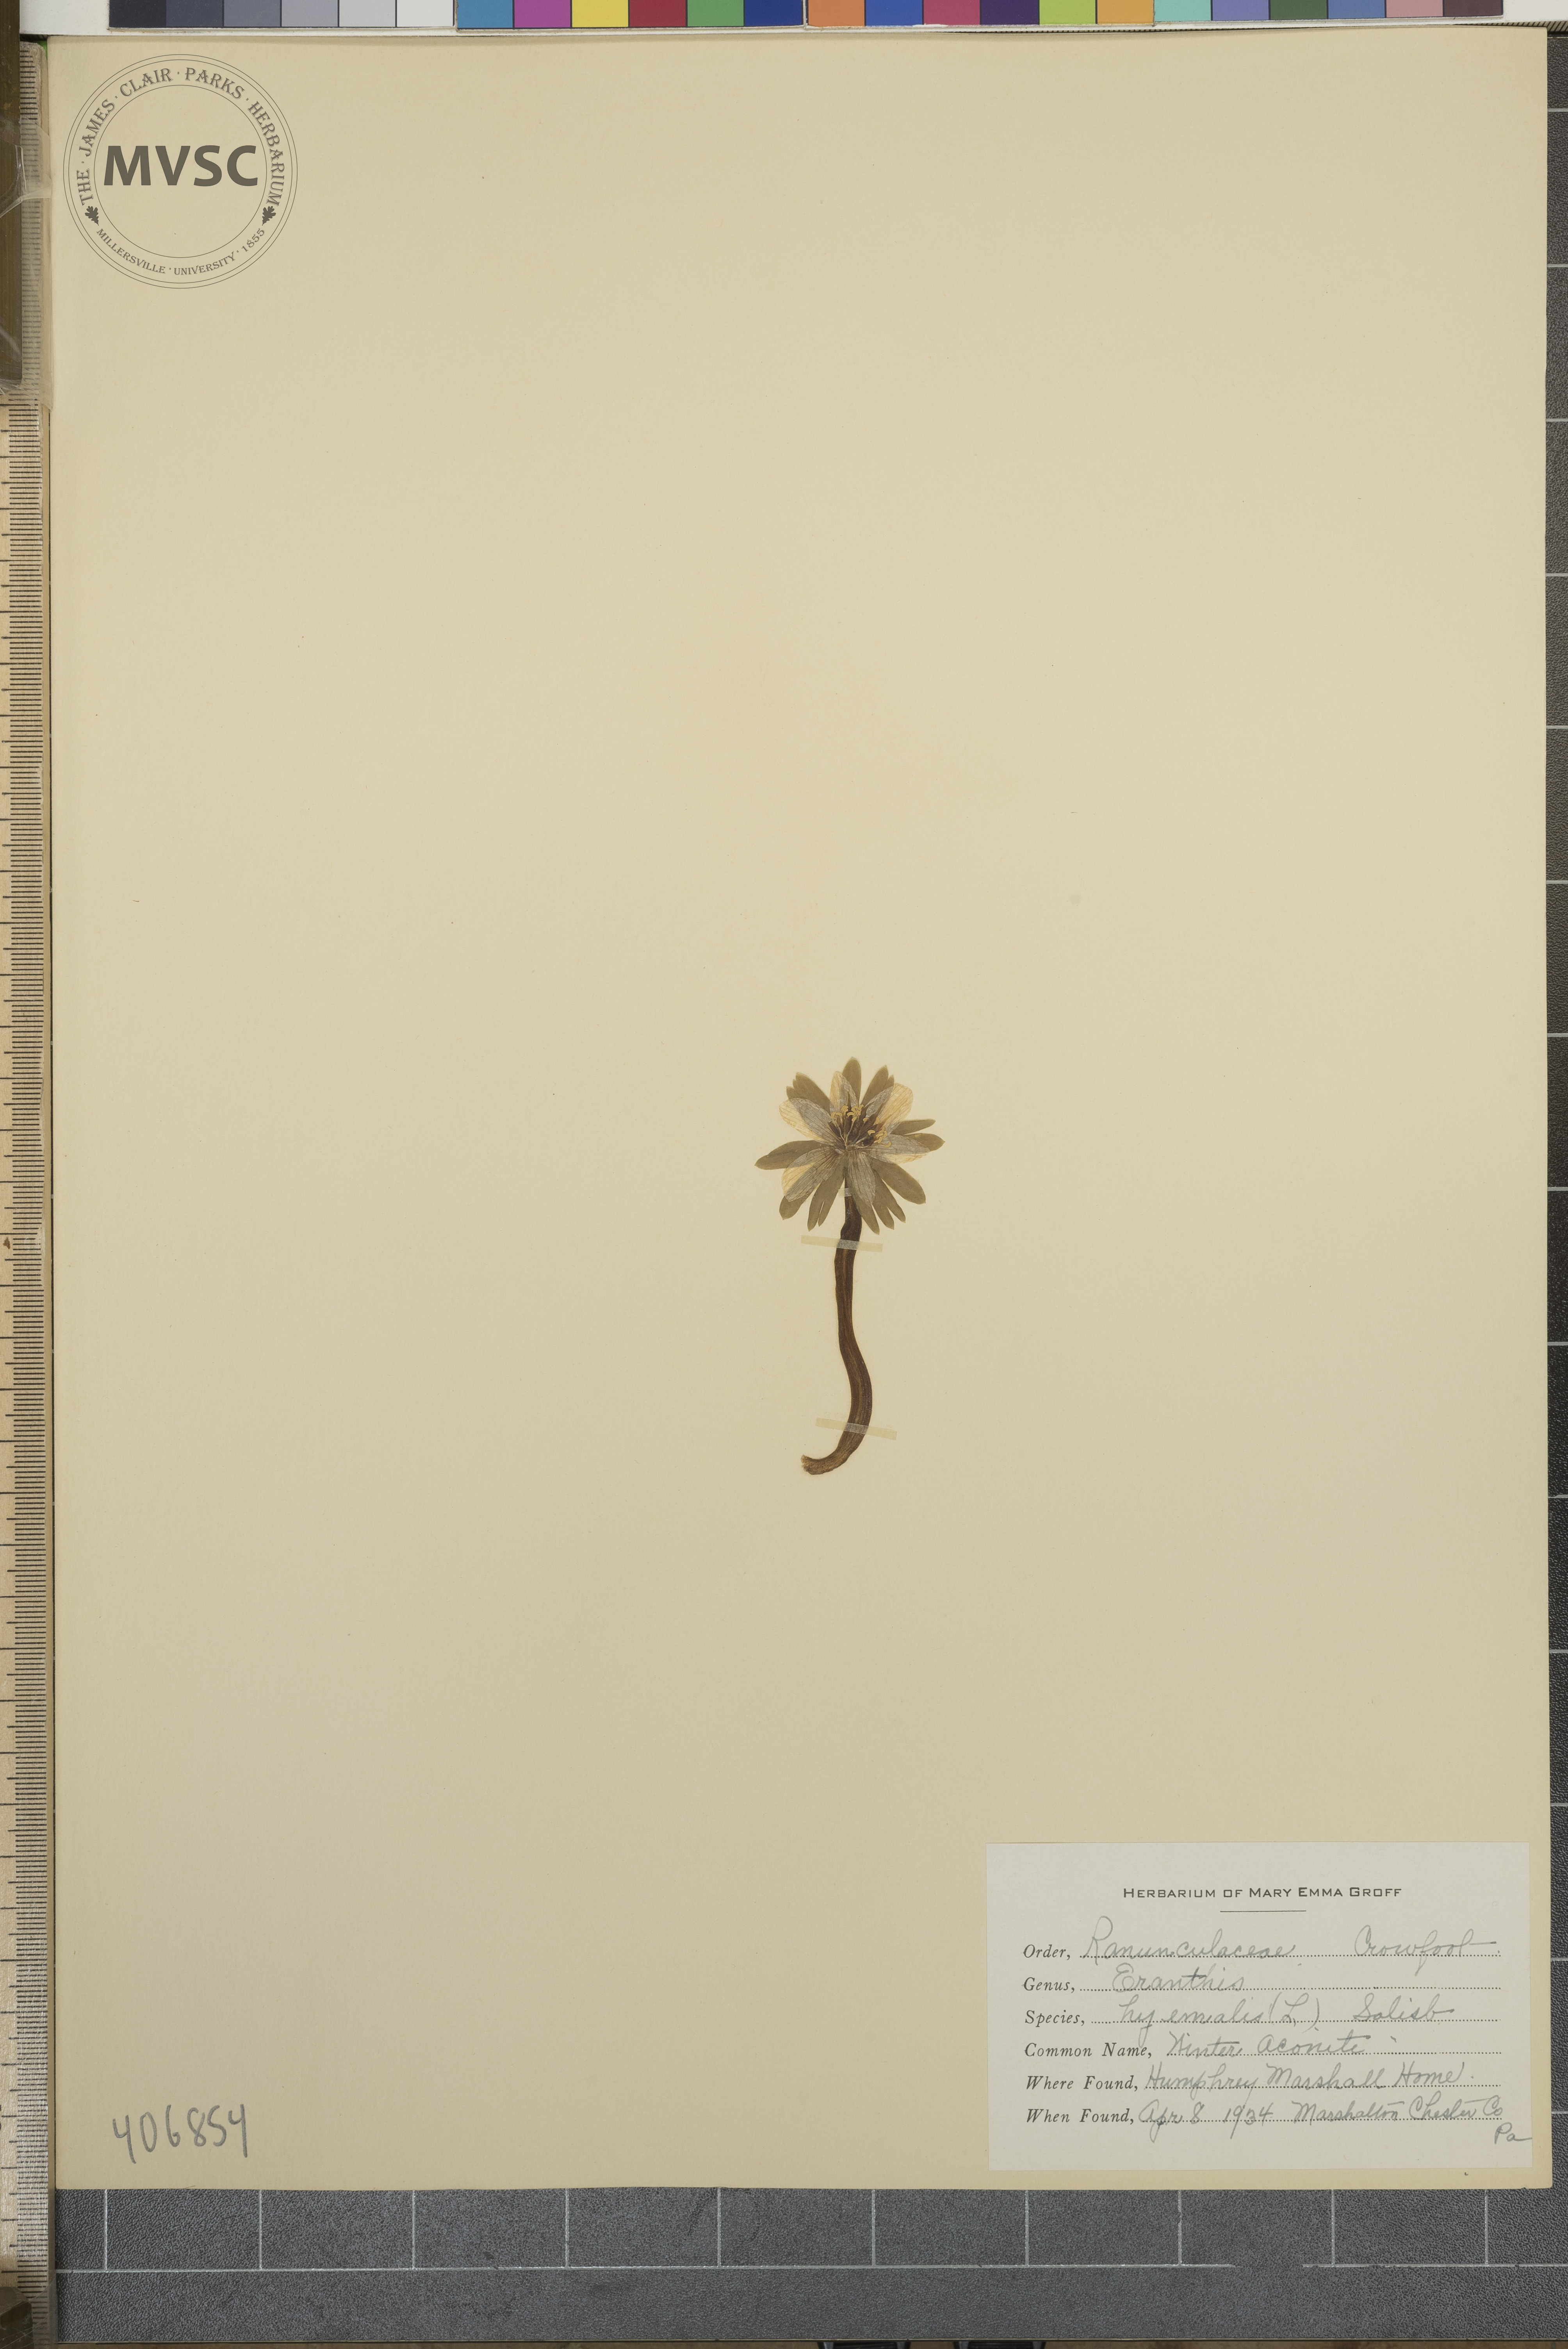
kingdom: Plantae
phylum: Tracheophyta
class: Magnoliopsida
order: Ranunculales
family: Ranunculaceae
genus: Eranthis
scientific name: Eranthis hyemalis
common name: Winter Aconite
